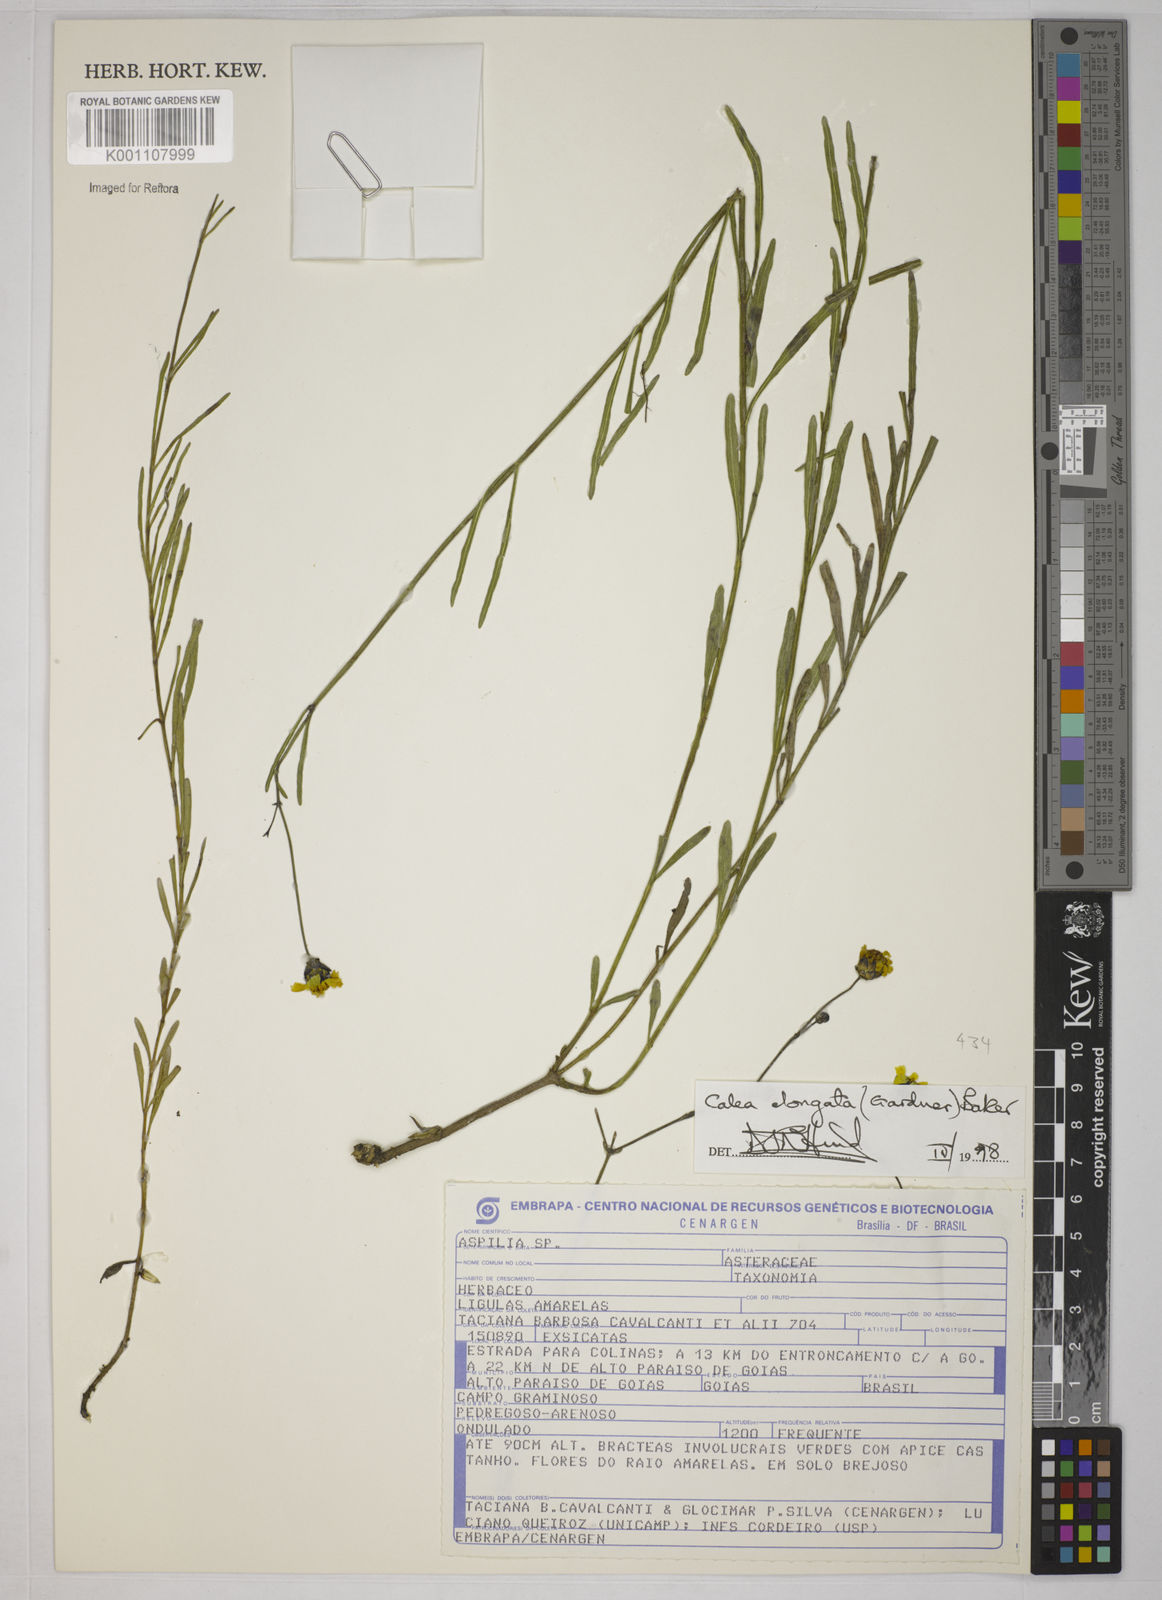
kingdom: Plantae
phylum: Tracheophyta
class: Magnoliopsida
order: Asterales
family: Asteraceae
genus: Calea
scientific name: Calea elongata
